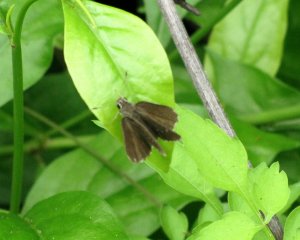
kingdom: Animalia
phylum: Arthropoda
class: Insecta
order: Lepidoptera
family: Hesperiidae
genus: Mastor
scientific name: Mastor celia
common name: Celia's Roadside-Skipper
